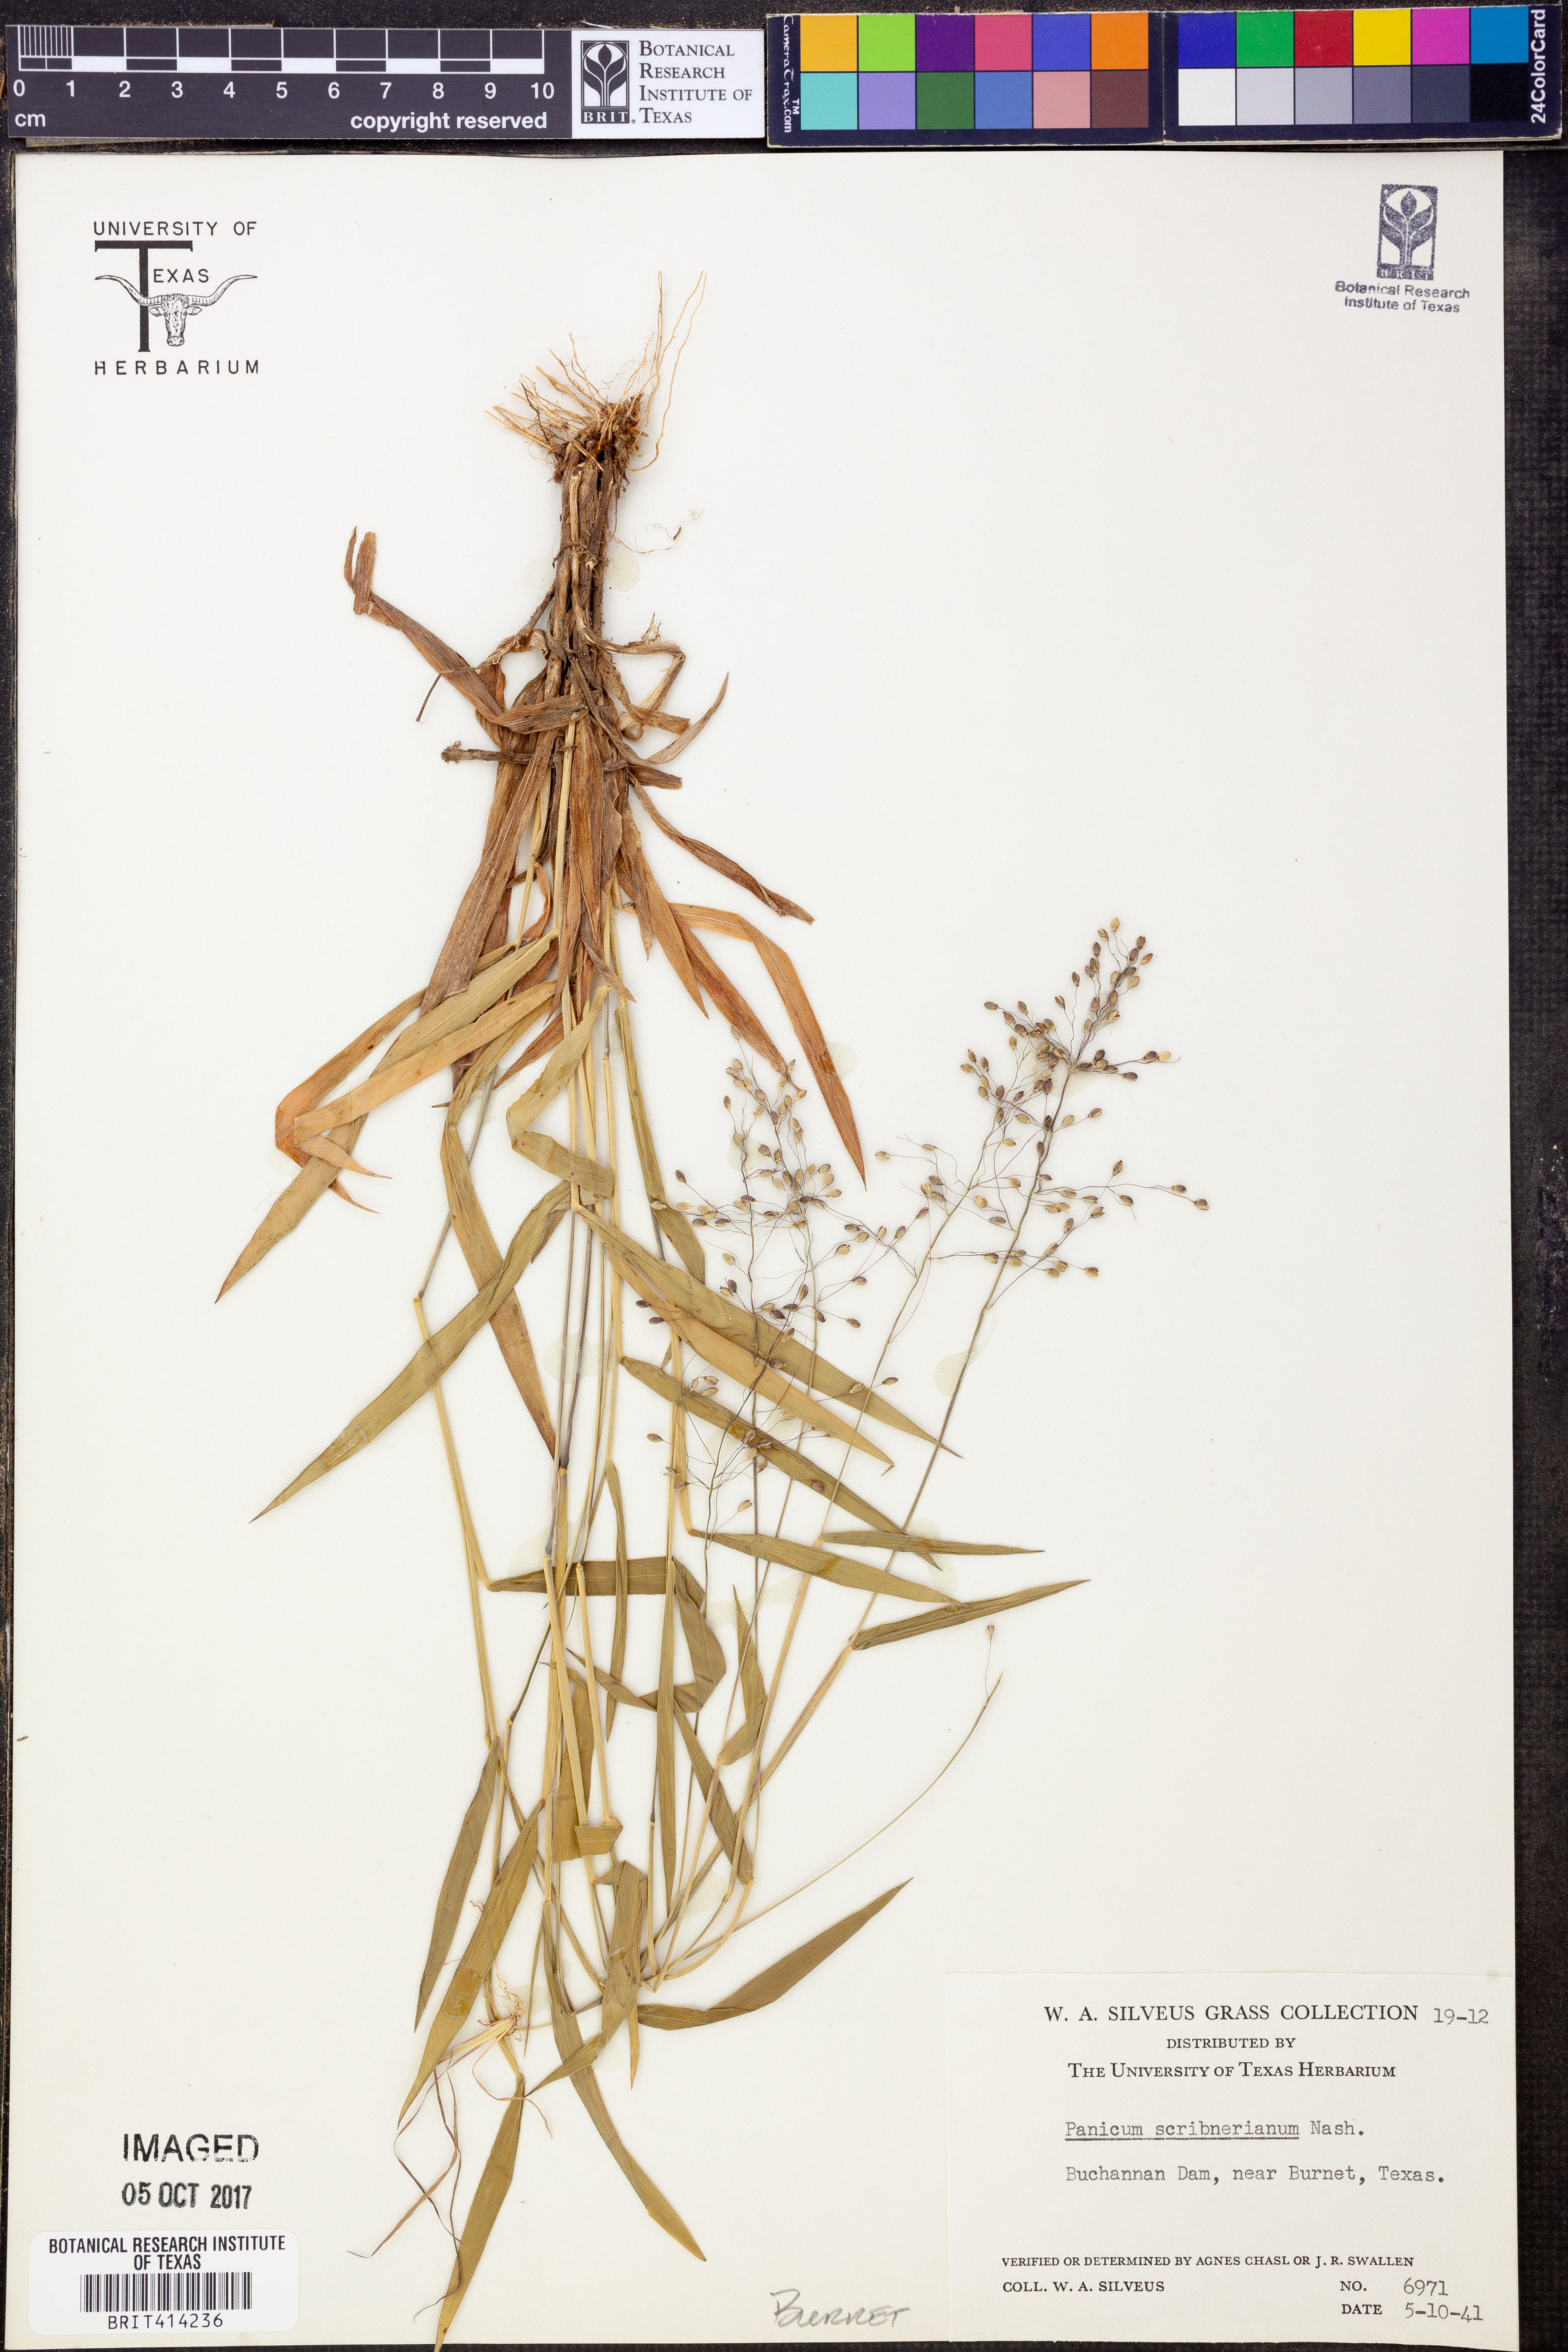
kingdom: Plantae
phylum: Tracheophyta
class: Liliopsida
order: Poales
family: Poaceae
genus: Dichanthelium
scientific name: Dichanthelium scribnerianum
